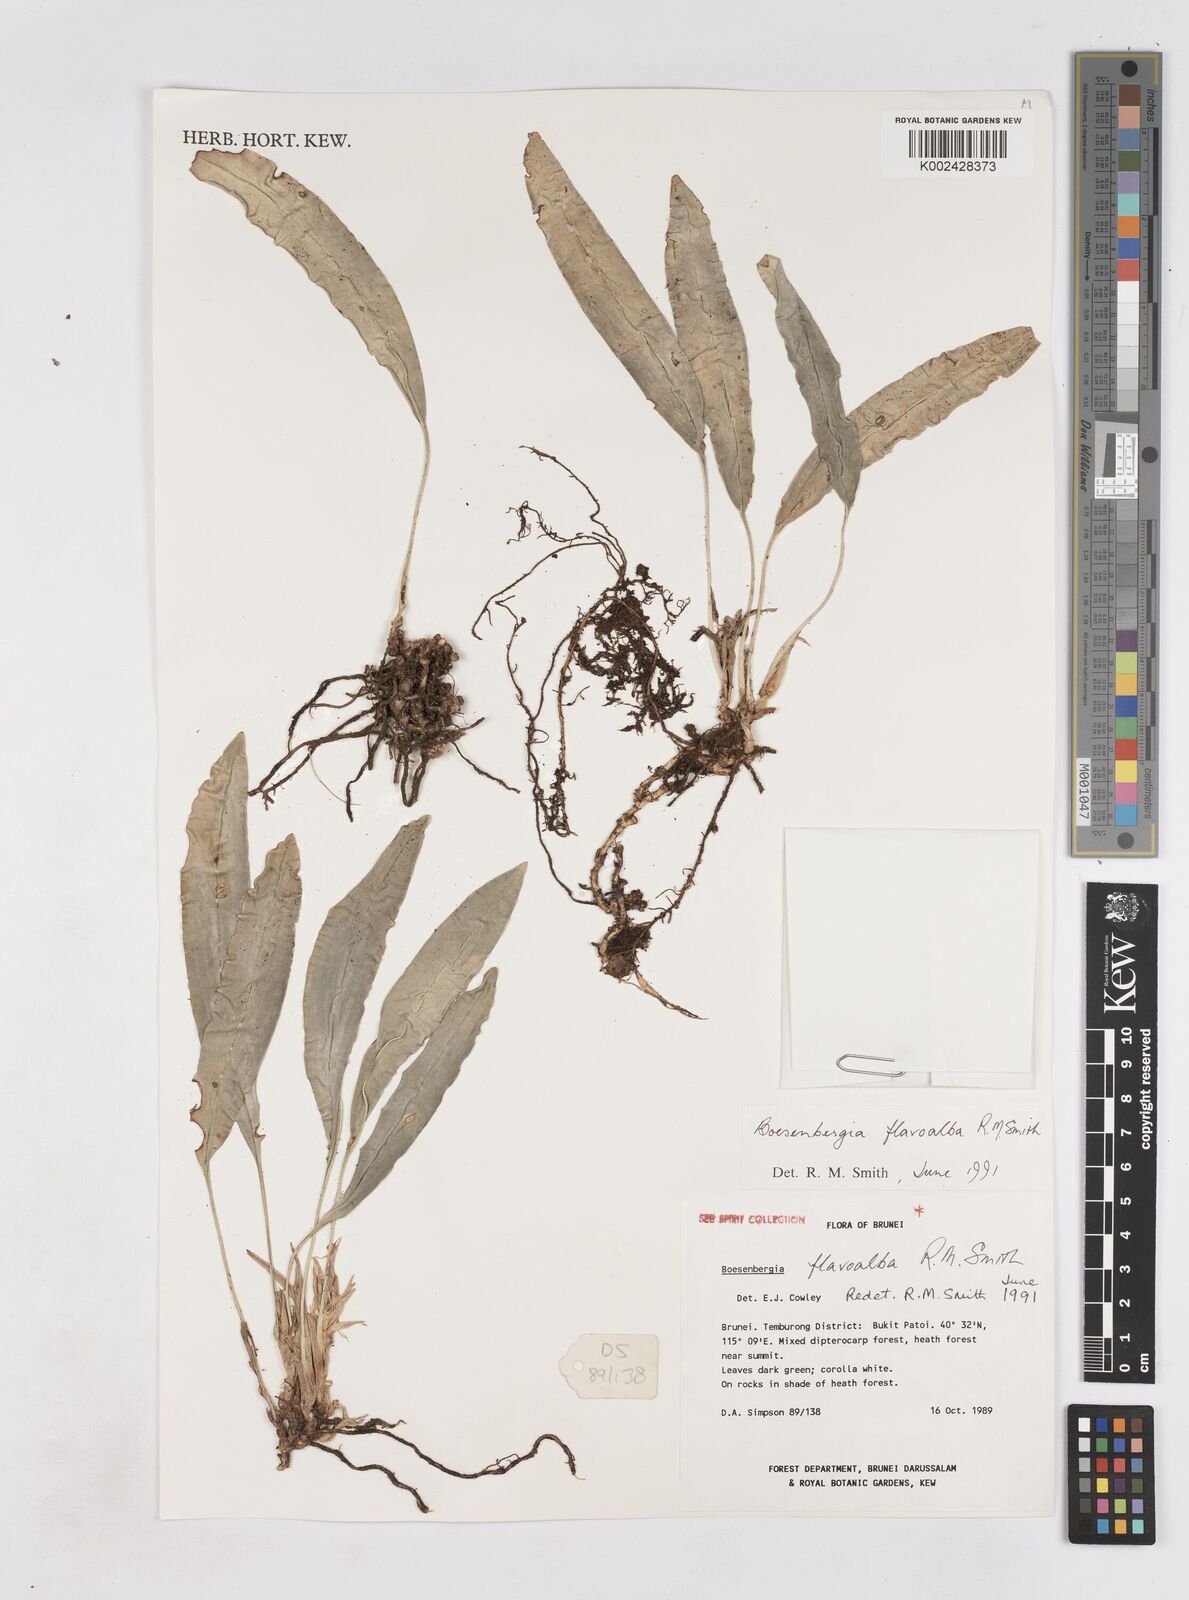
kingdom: Plantae
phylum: Tracheophyta
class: Liliopsida
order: Zingiberales
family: Zingiberaceae
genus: Boesenbergia
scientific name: Boesenbergia flavoalba
